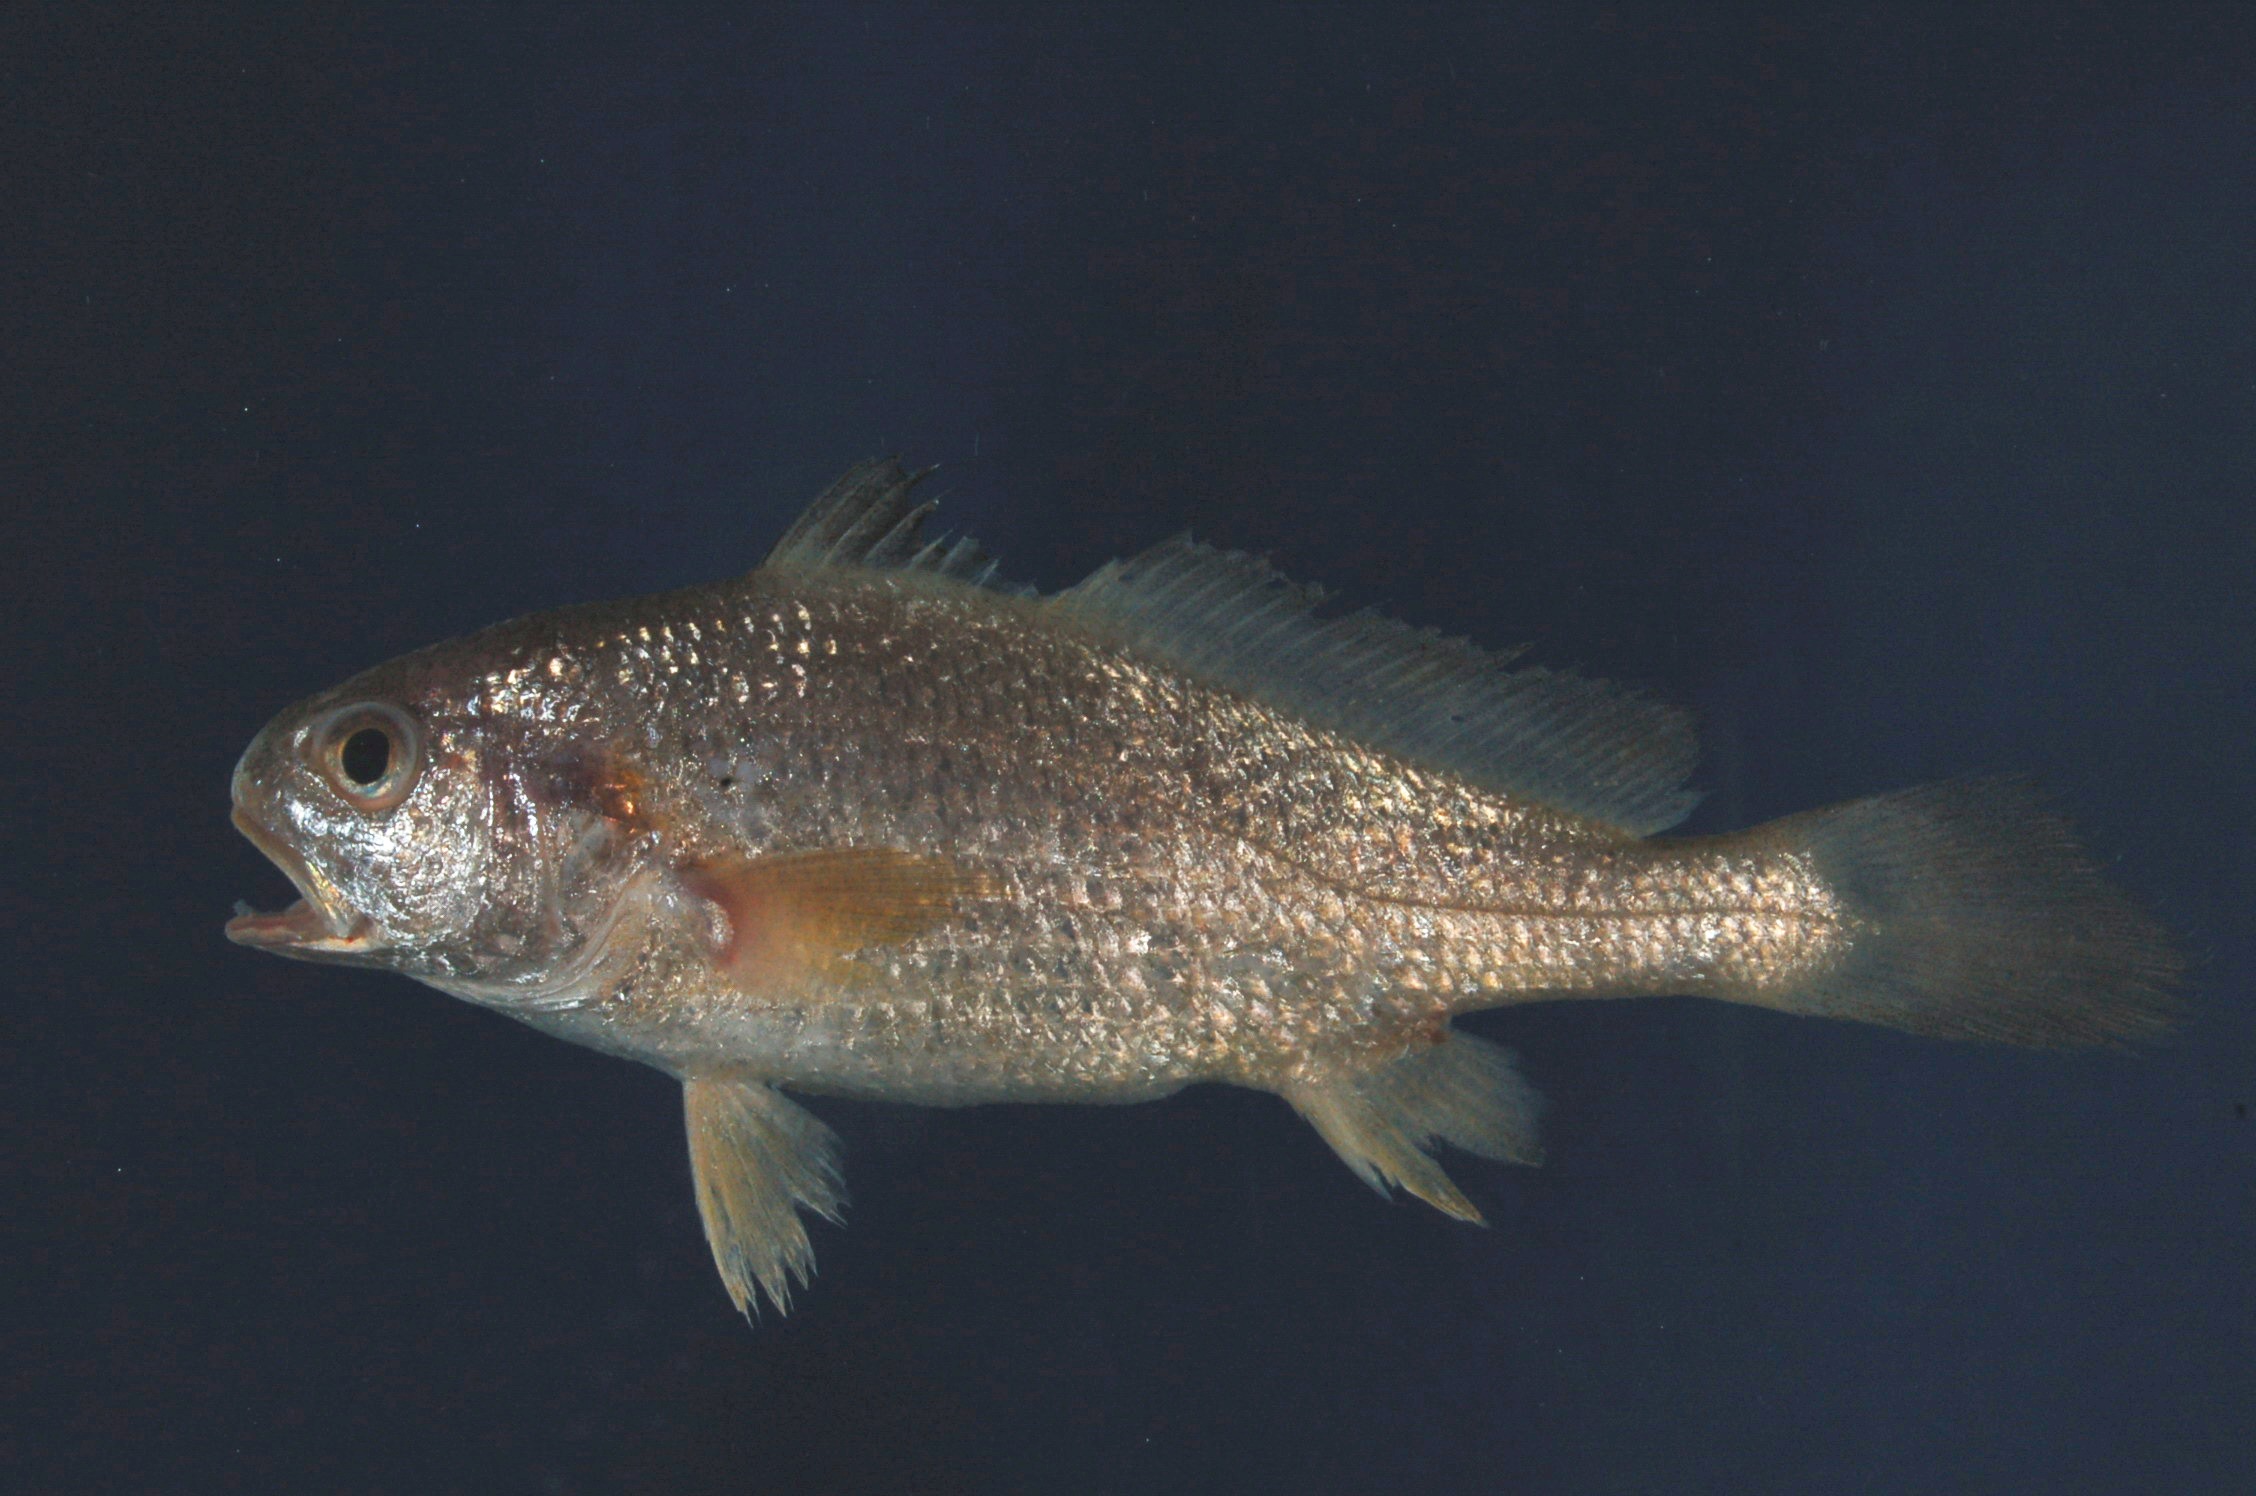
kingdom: Animalia
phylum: Chordata
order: Perciformes
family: Sciaenidae
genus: Johnius
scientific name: Johnius dussumieri
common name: Sin croaker
